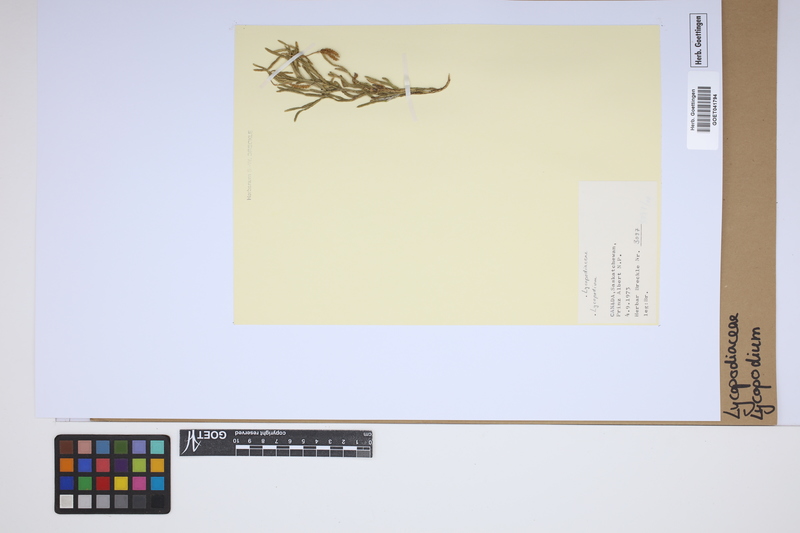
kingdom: Plantae
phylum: Tracheophyta
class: Lycopodiopsida
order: Lycopodiales
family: Lycopodiaceae
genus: Lycopodium
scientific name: Lycopodium
